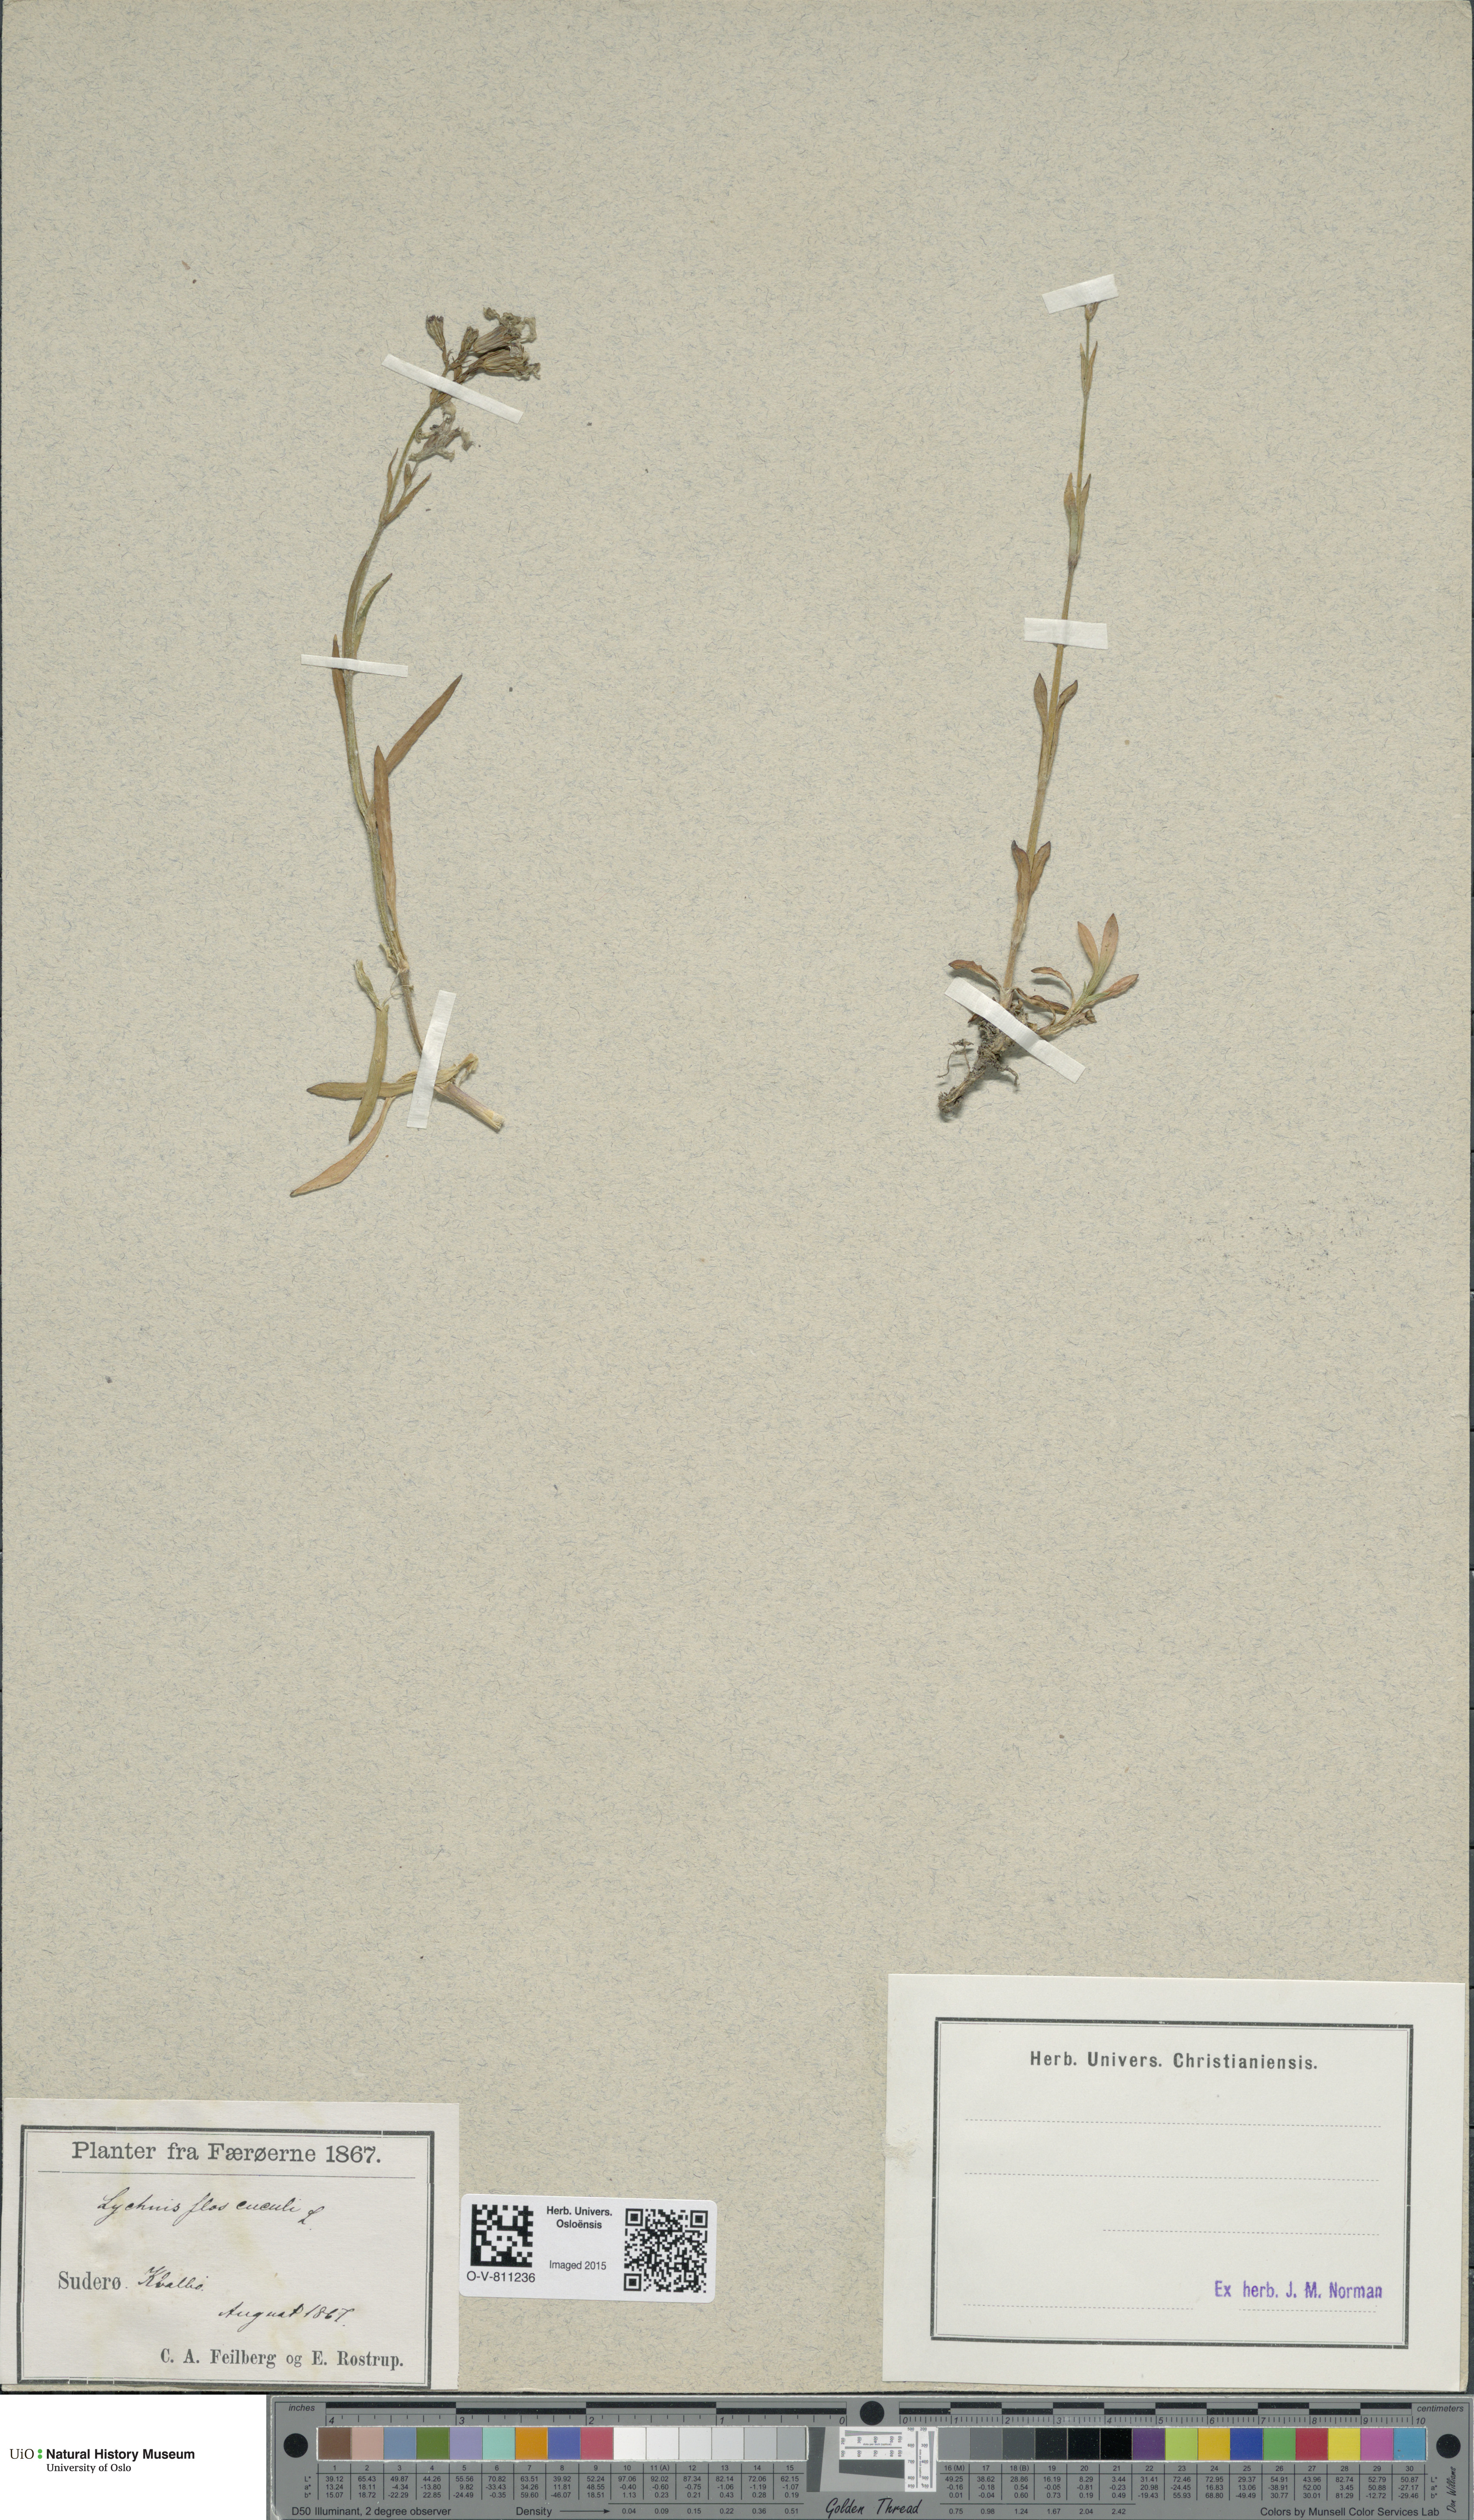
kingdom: Plantae
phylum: Tracheophyta
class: Magnoliopsida
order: Caryophyllales
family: Caryophyllaceae
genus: Silene
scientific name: Silene flos-cuculi
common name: Ragged-robin
